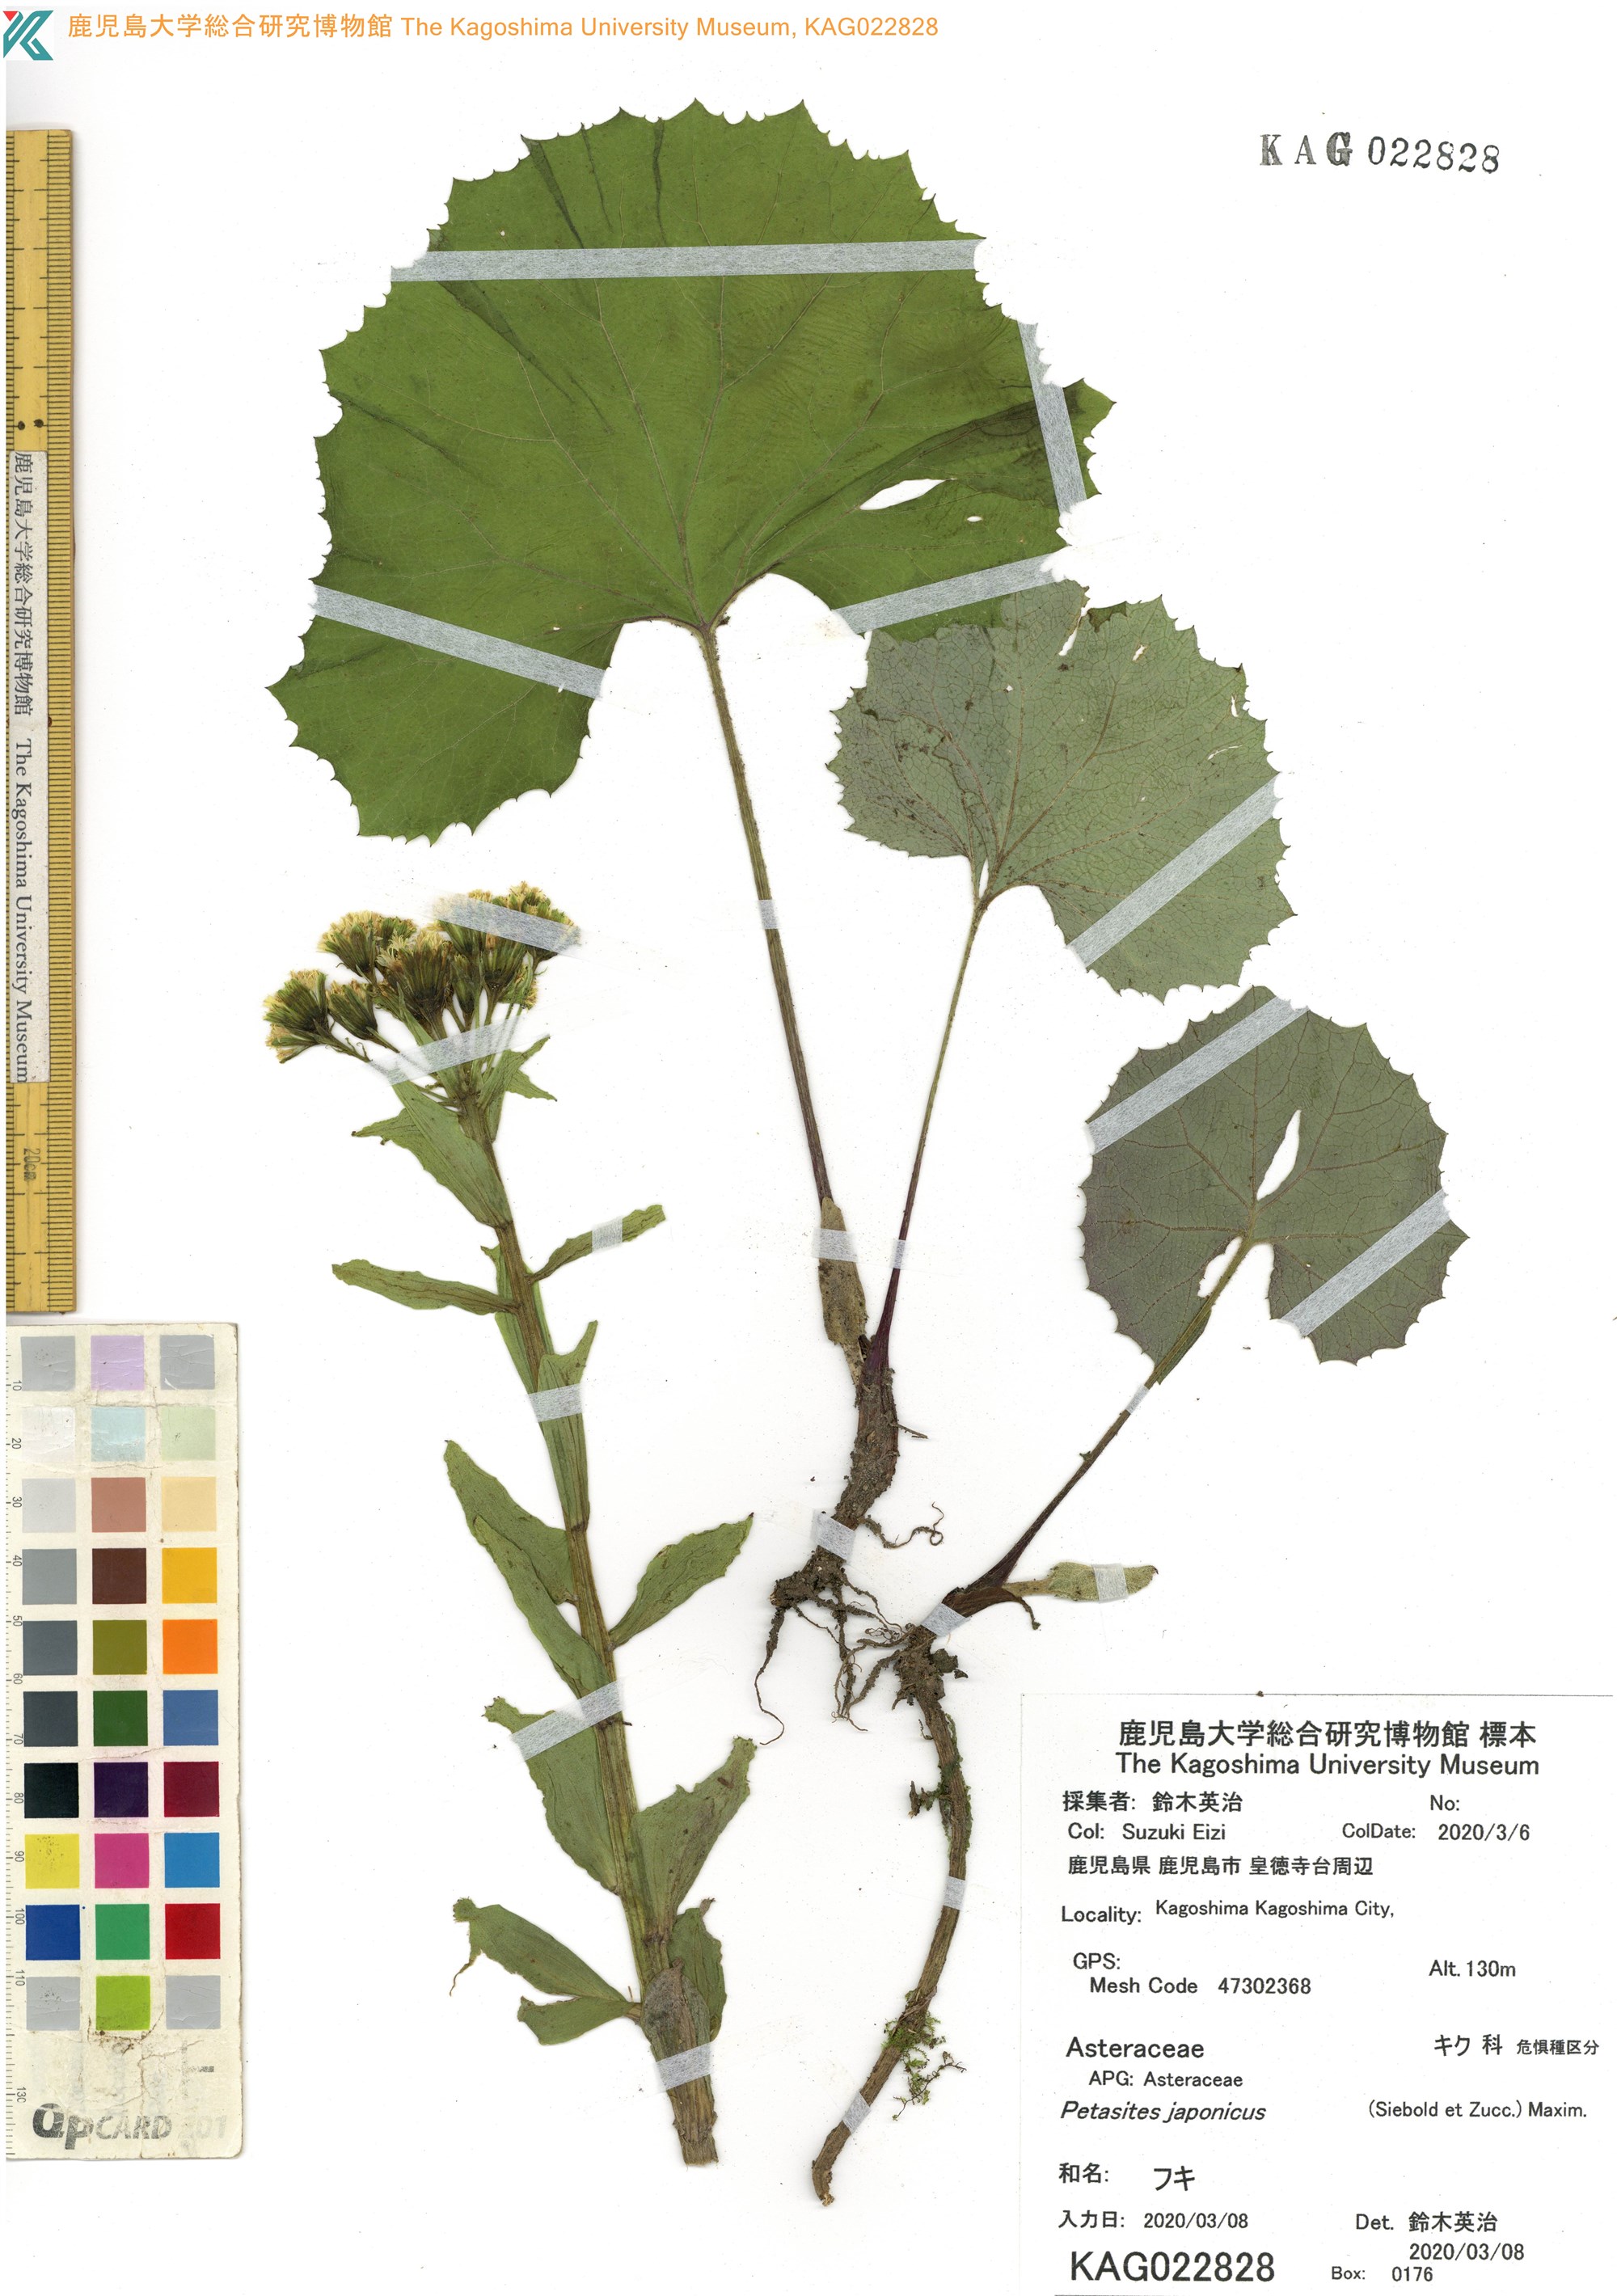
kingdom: Plantae
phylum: Tracheophyta
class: Magnoliopsida
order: Asterales
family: Asteraceae
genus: Petasites
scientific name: Petasites japonicus
